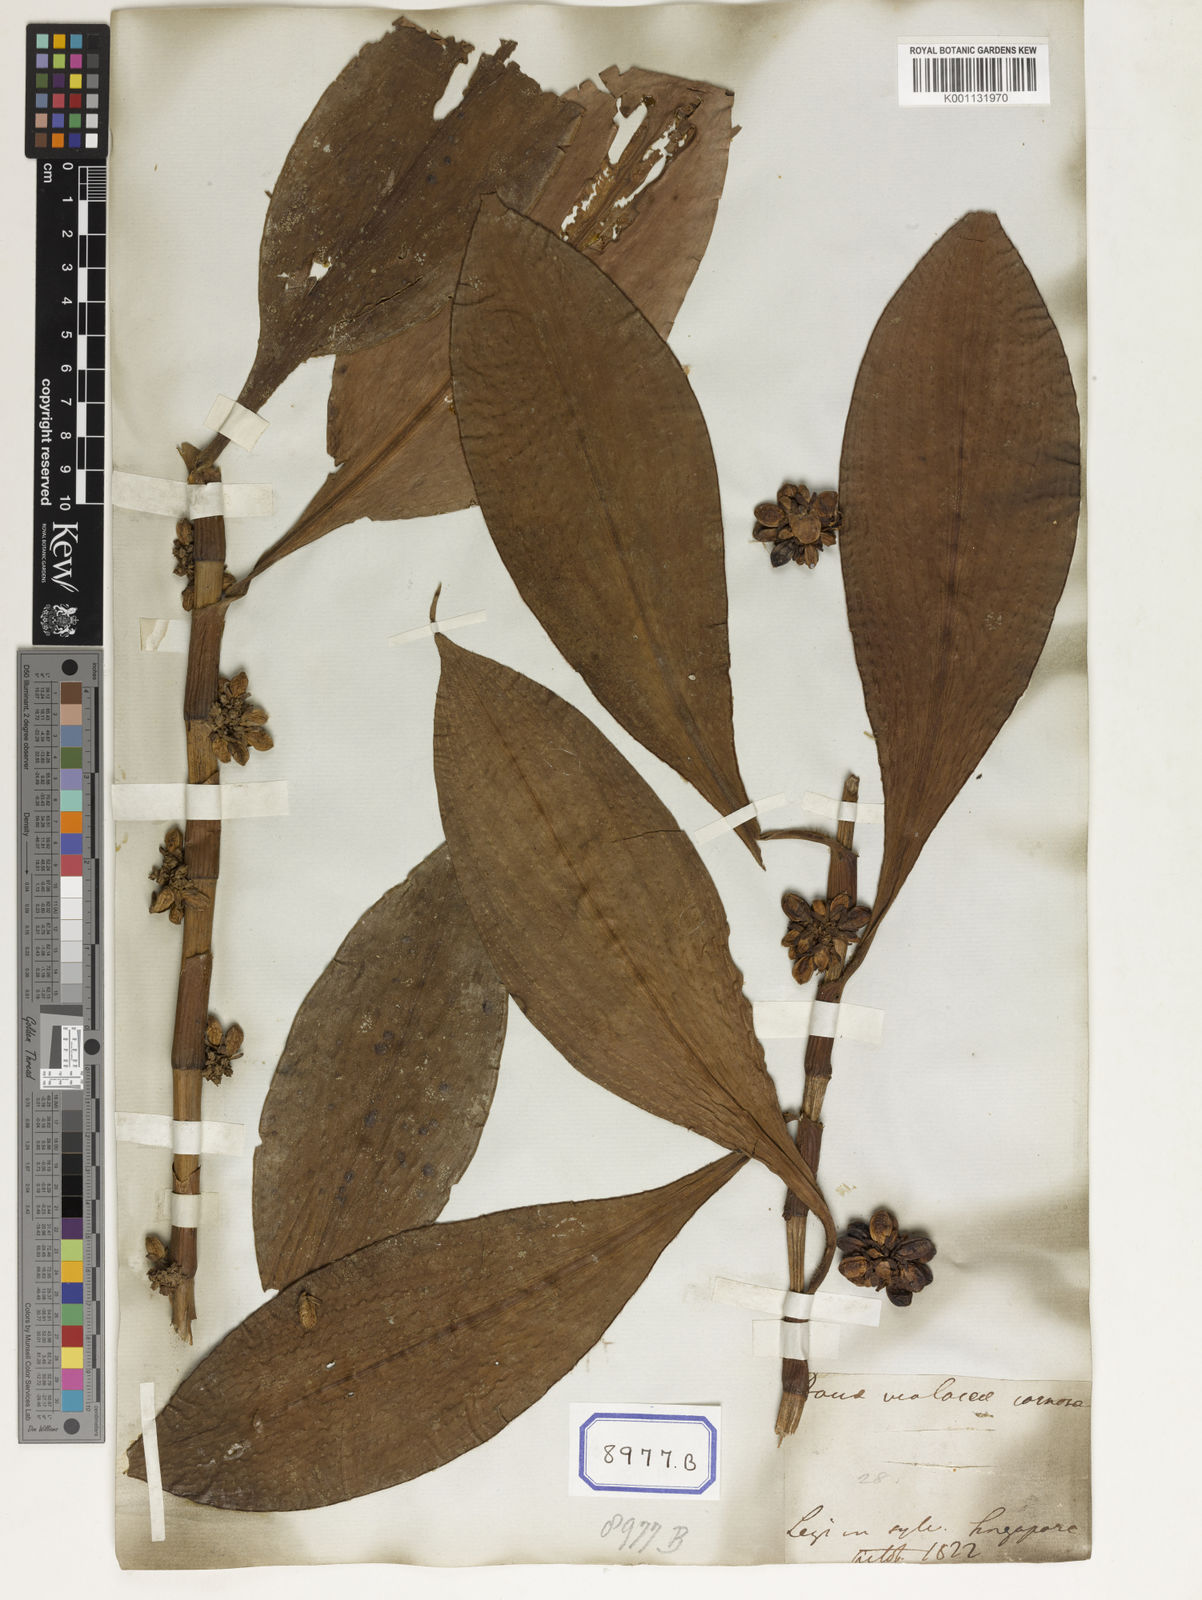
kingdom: Plantae
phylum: Tracheophyta
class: Liliopsida
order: Commelinales
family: Commelinaceae
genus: Amischotolype
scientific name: Amischotolype marginata
